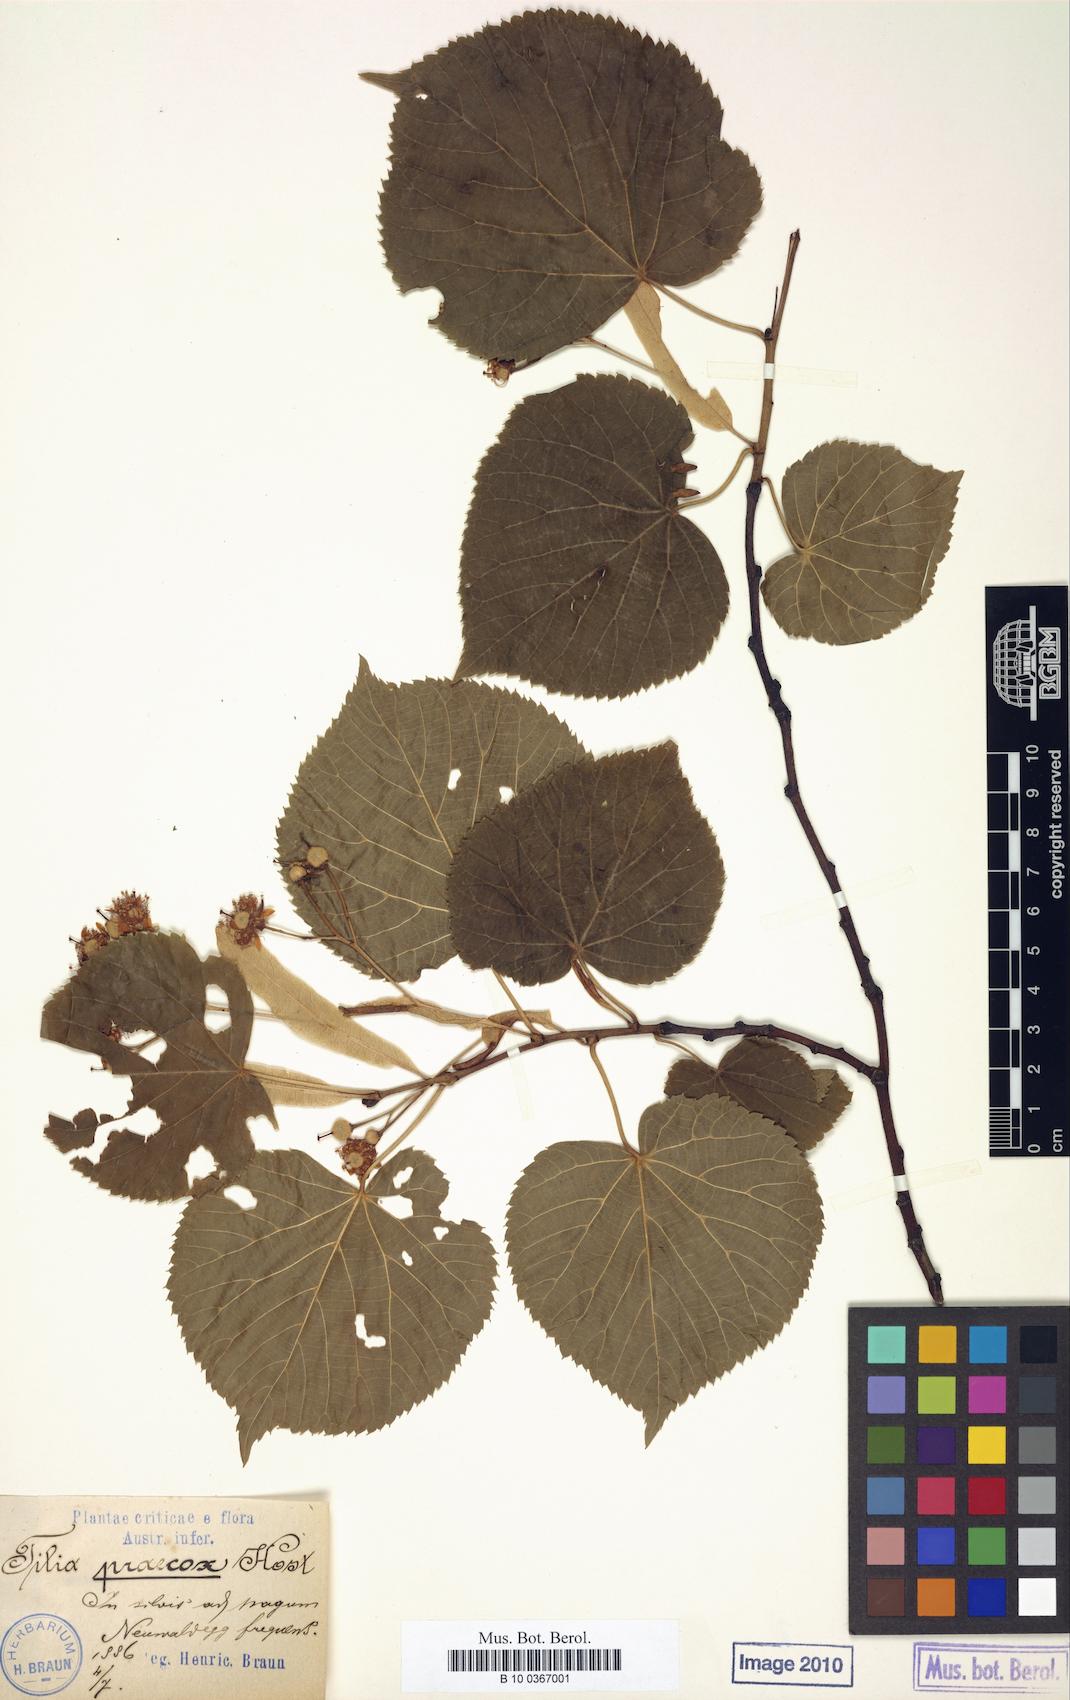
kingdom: Plantae
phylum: Tracheophyta
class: Magnoliopsida
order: Malvales
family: Malvaceae
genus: Tilia
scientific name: Tilia flaccida
